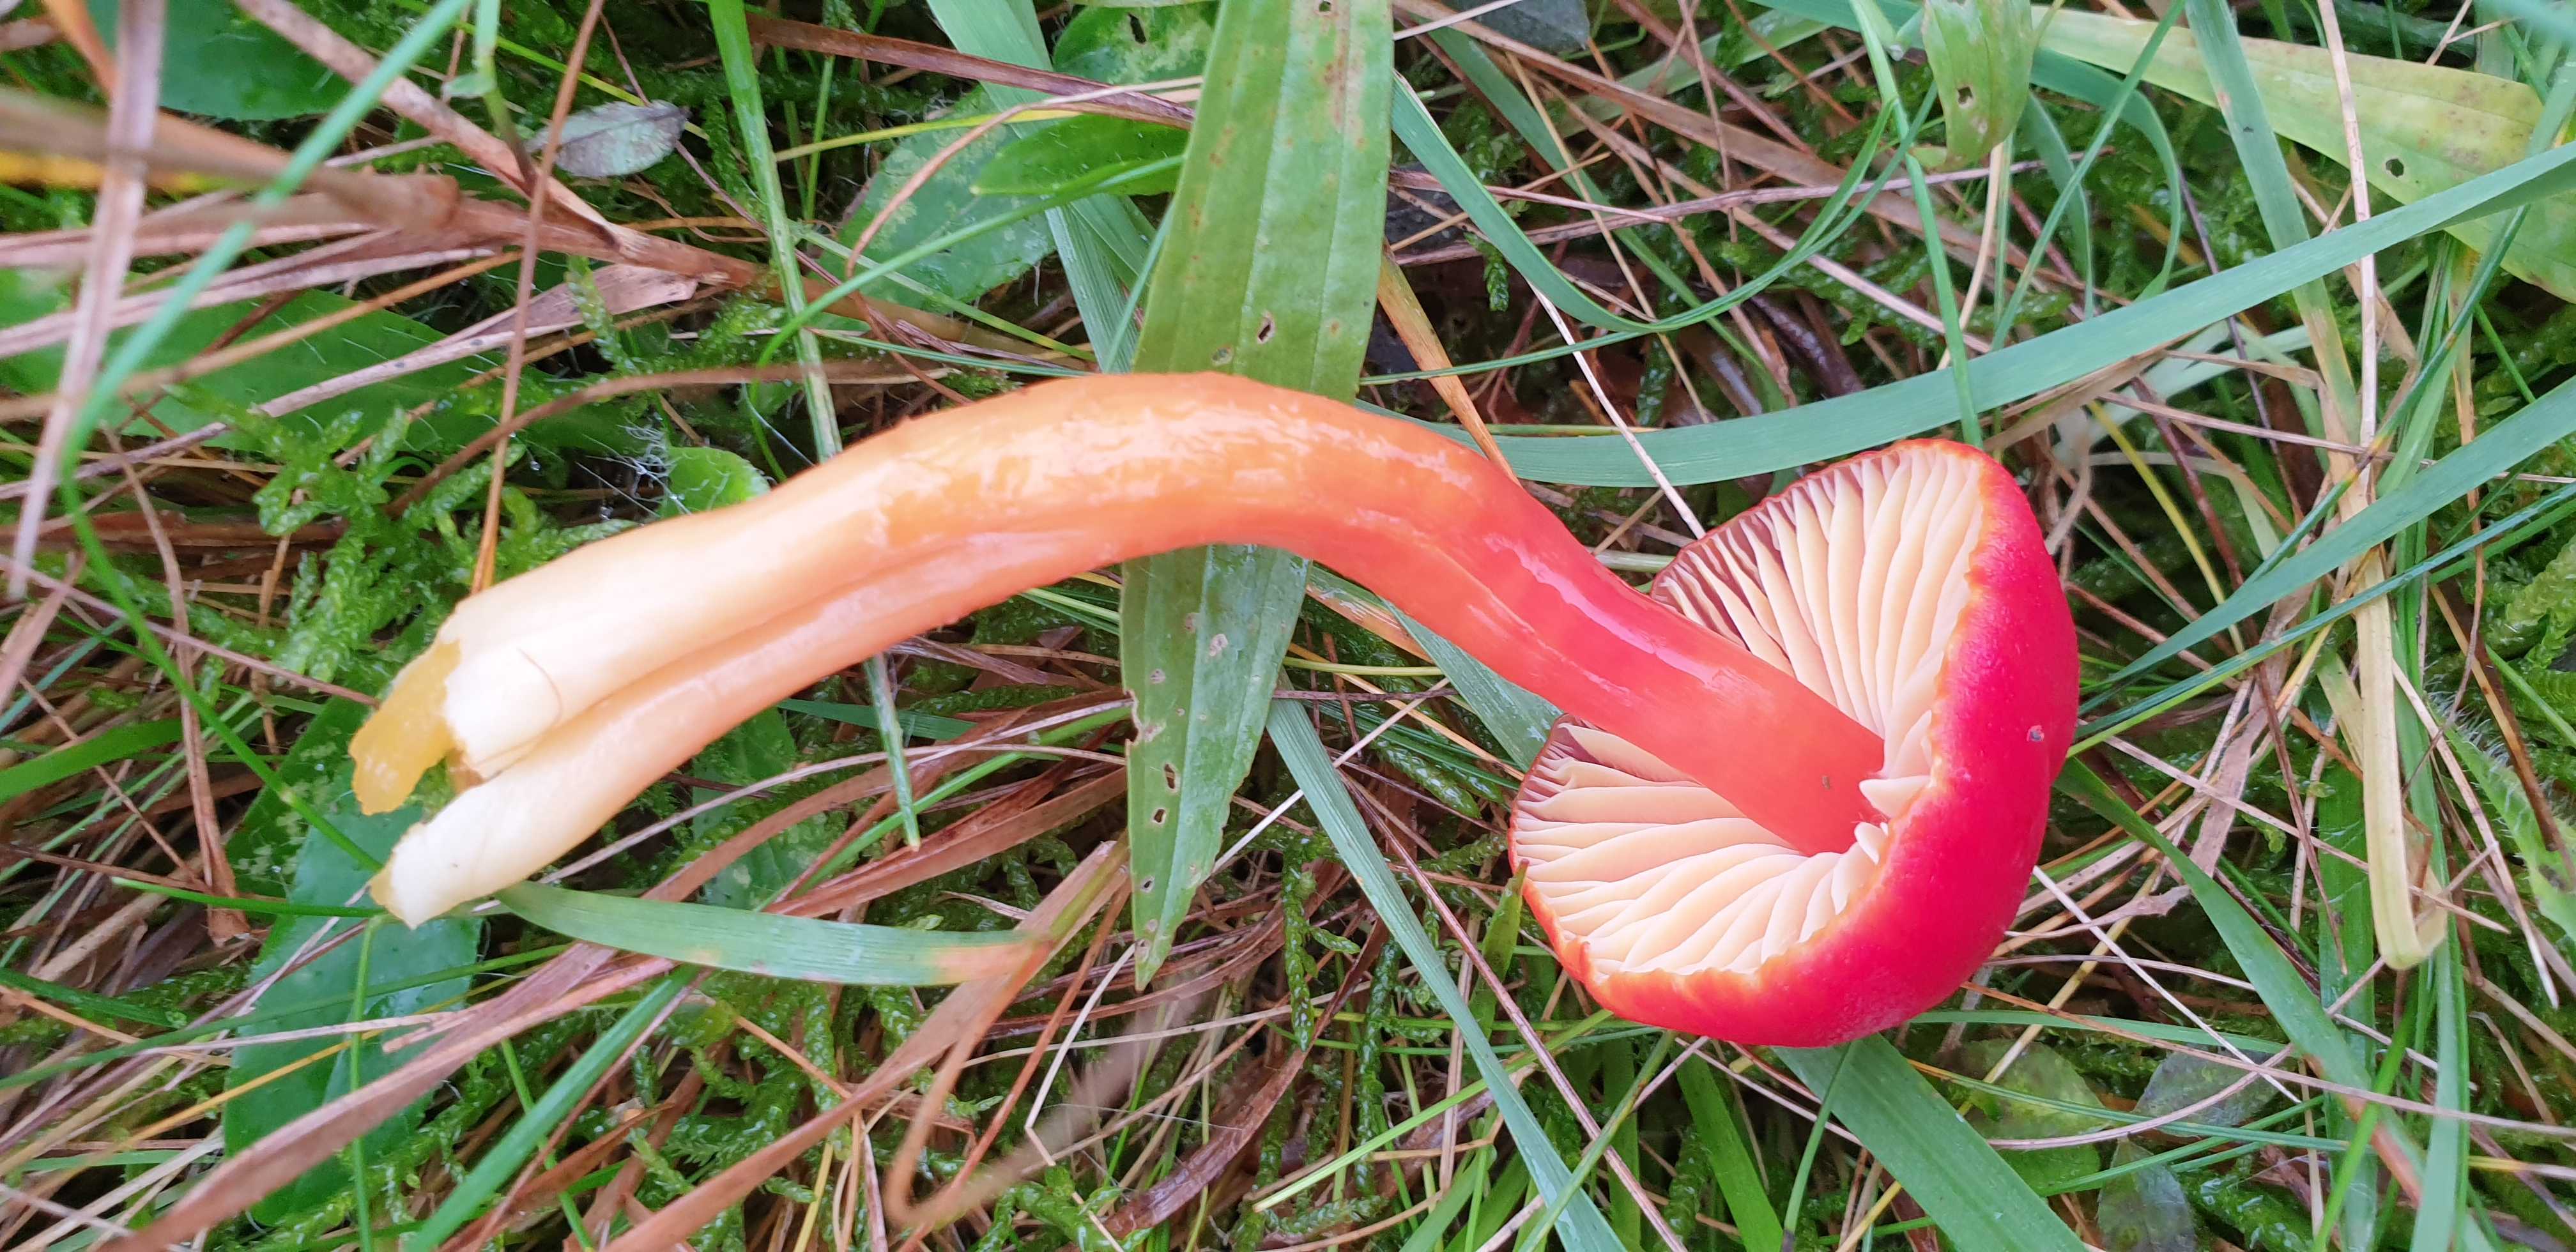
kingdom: Fungi
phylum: Basidiomycota
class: Agaricomycetes
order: Agaricales
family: Hygrophoraceae
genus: Hygrocybe
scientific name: Hygrocybe coccinea
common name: cinnober-vokshat
